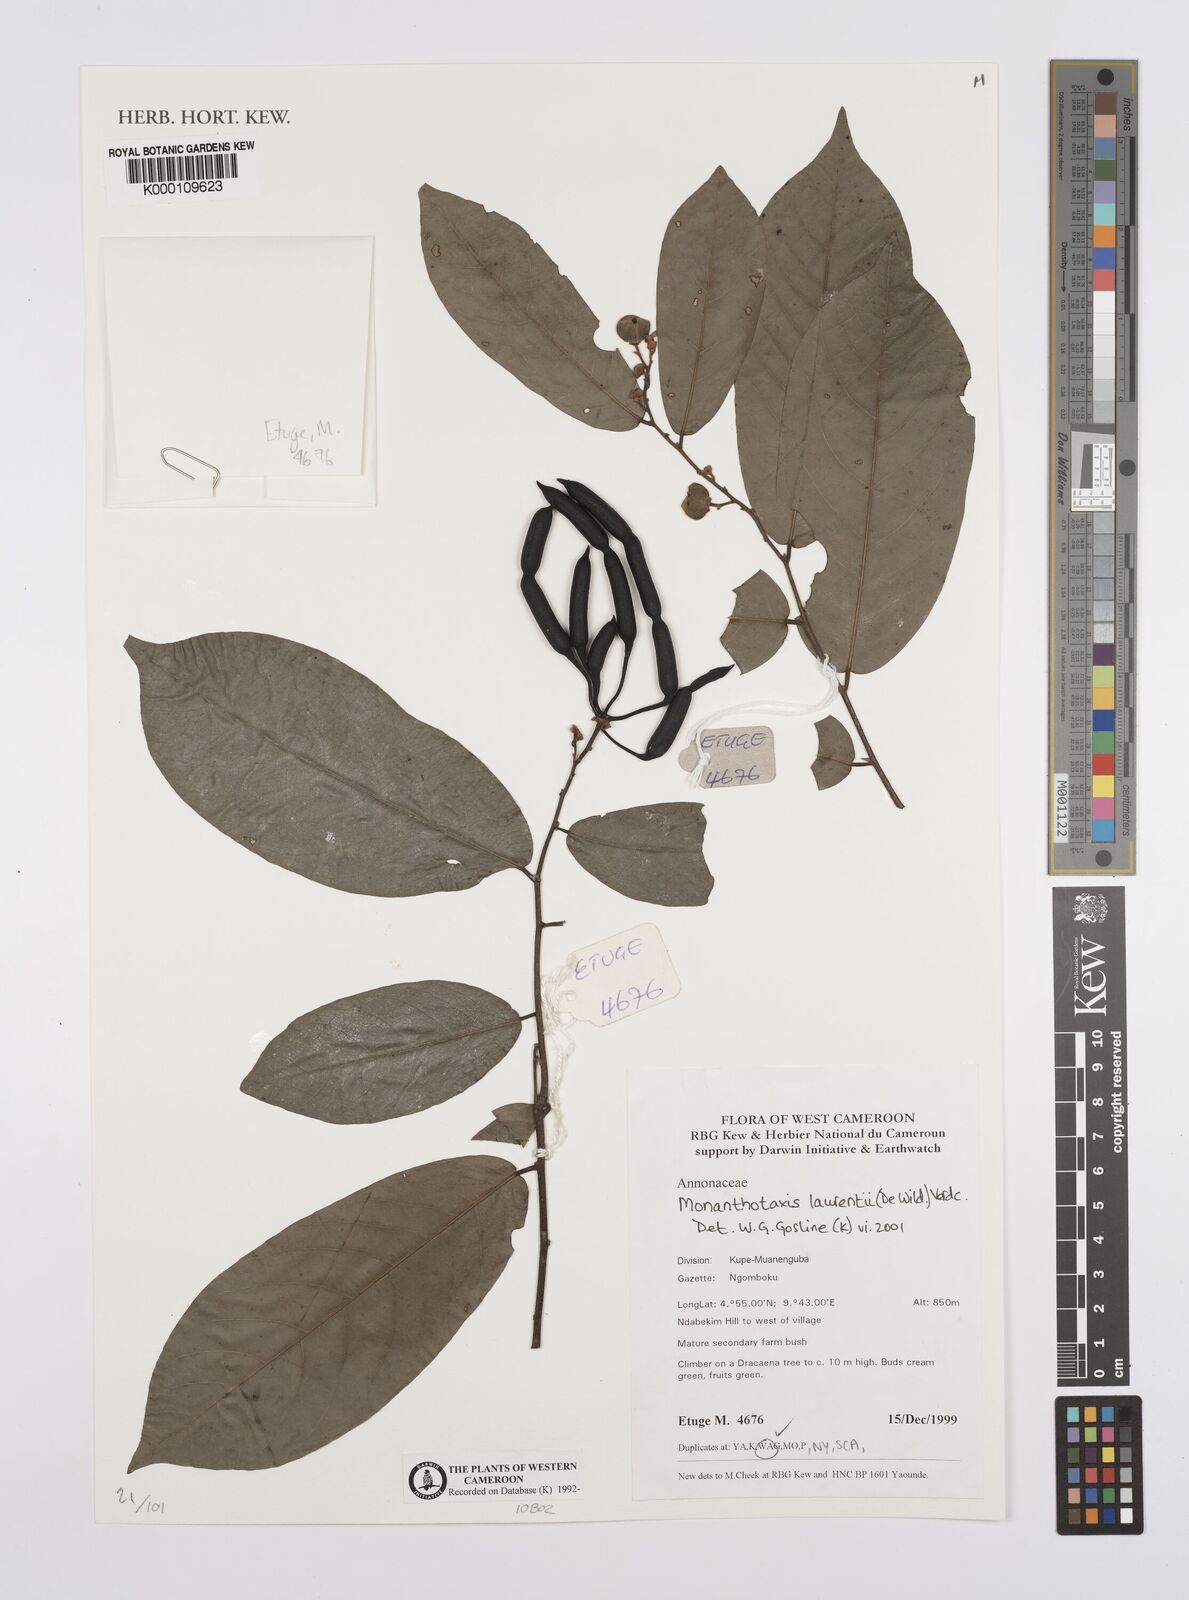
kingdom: Plantae
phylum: Tracheophyta
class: Magnoliopsida
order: Magnoliales
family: Annonaceae
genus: Monanthotaxis
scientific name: Monanthotaxis laurentii
